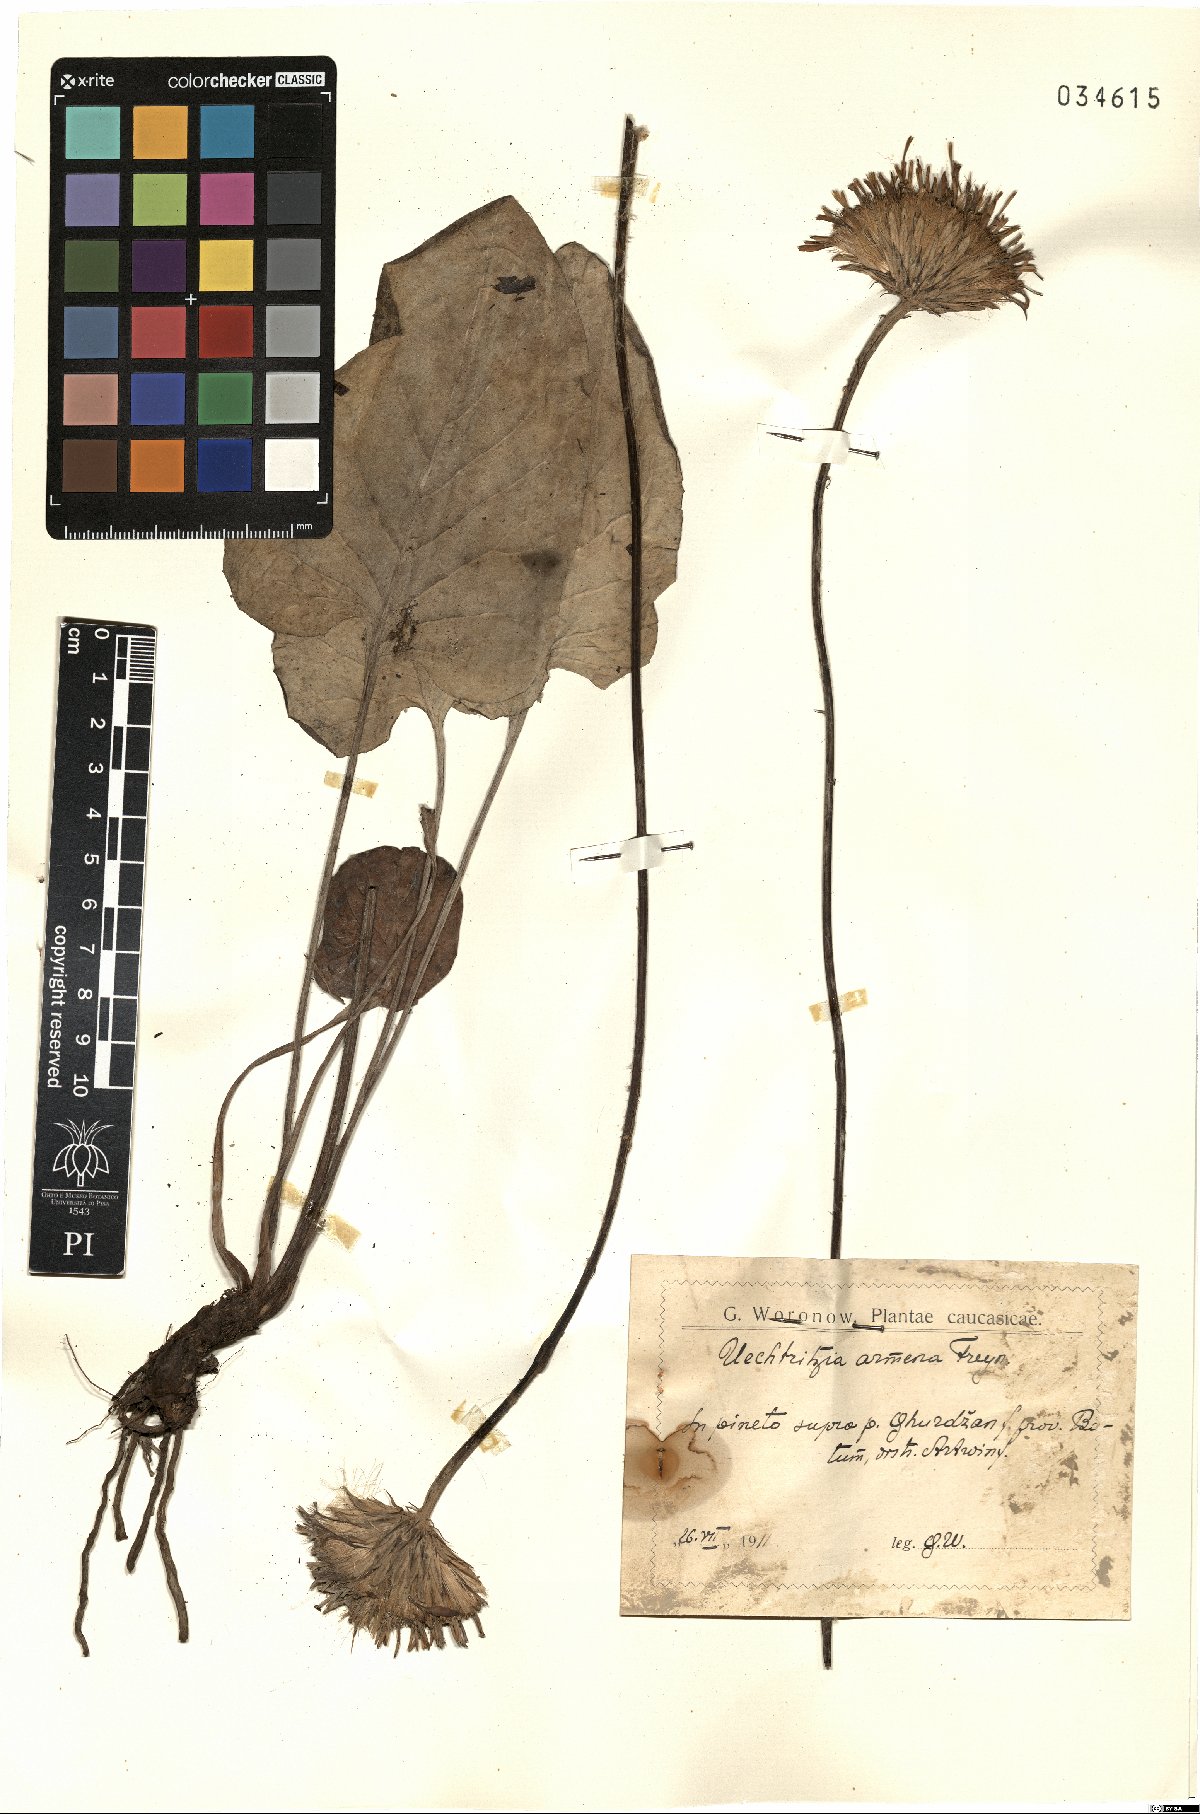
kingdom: Plantae
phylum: Tracheophyta
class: Magnoliopsida
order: Asterales
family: Asteraceae
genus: Oreoseris
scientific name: Oreoseris armena
